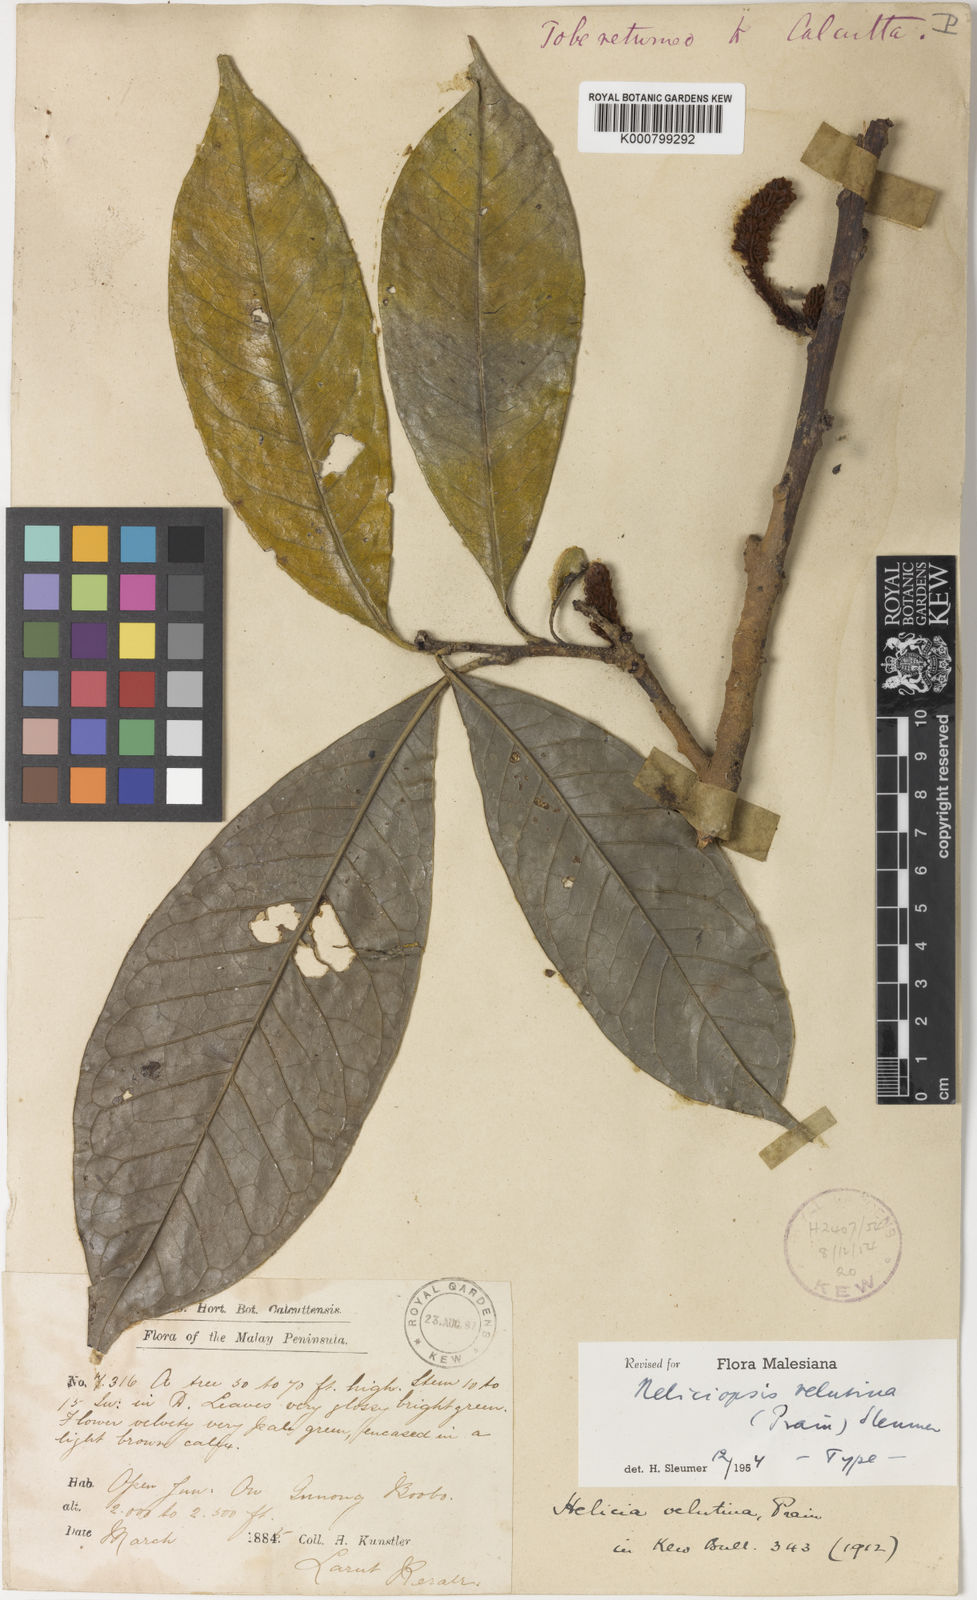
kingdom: Plantae
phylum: Tracheophyta
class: Magnoliopsida
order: Proteales
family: Proteaceae
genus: Heliciopsis
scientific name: Heliciopsis velutina
